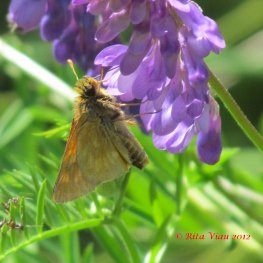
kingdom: Animalia
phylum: Arthropoda
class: Insecta
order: Lepidoptera
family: Hesperiidae
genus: Polites
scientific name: Polites
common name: Long Dash Skipper
